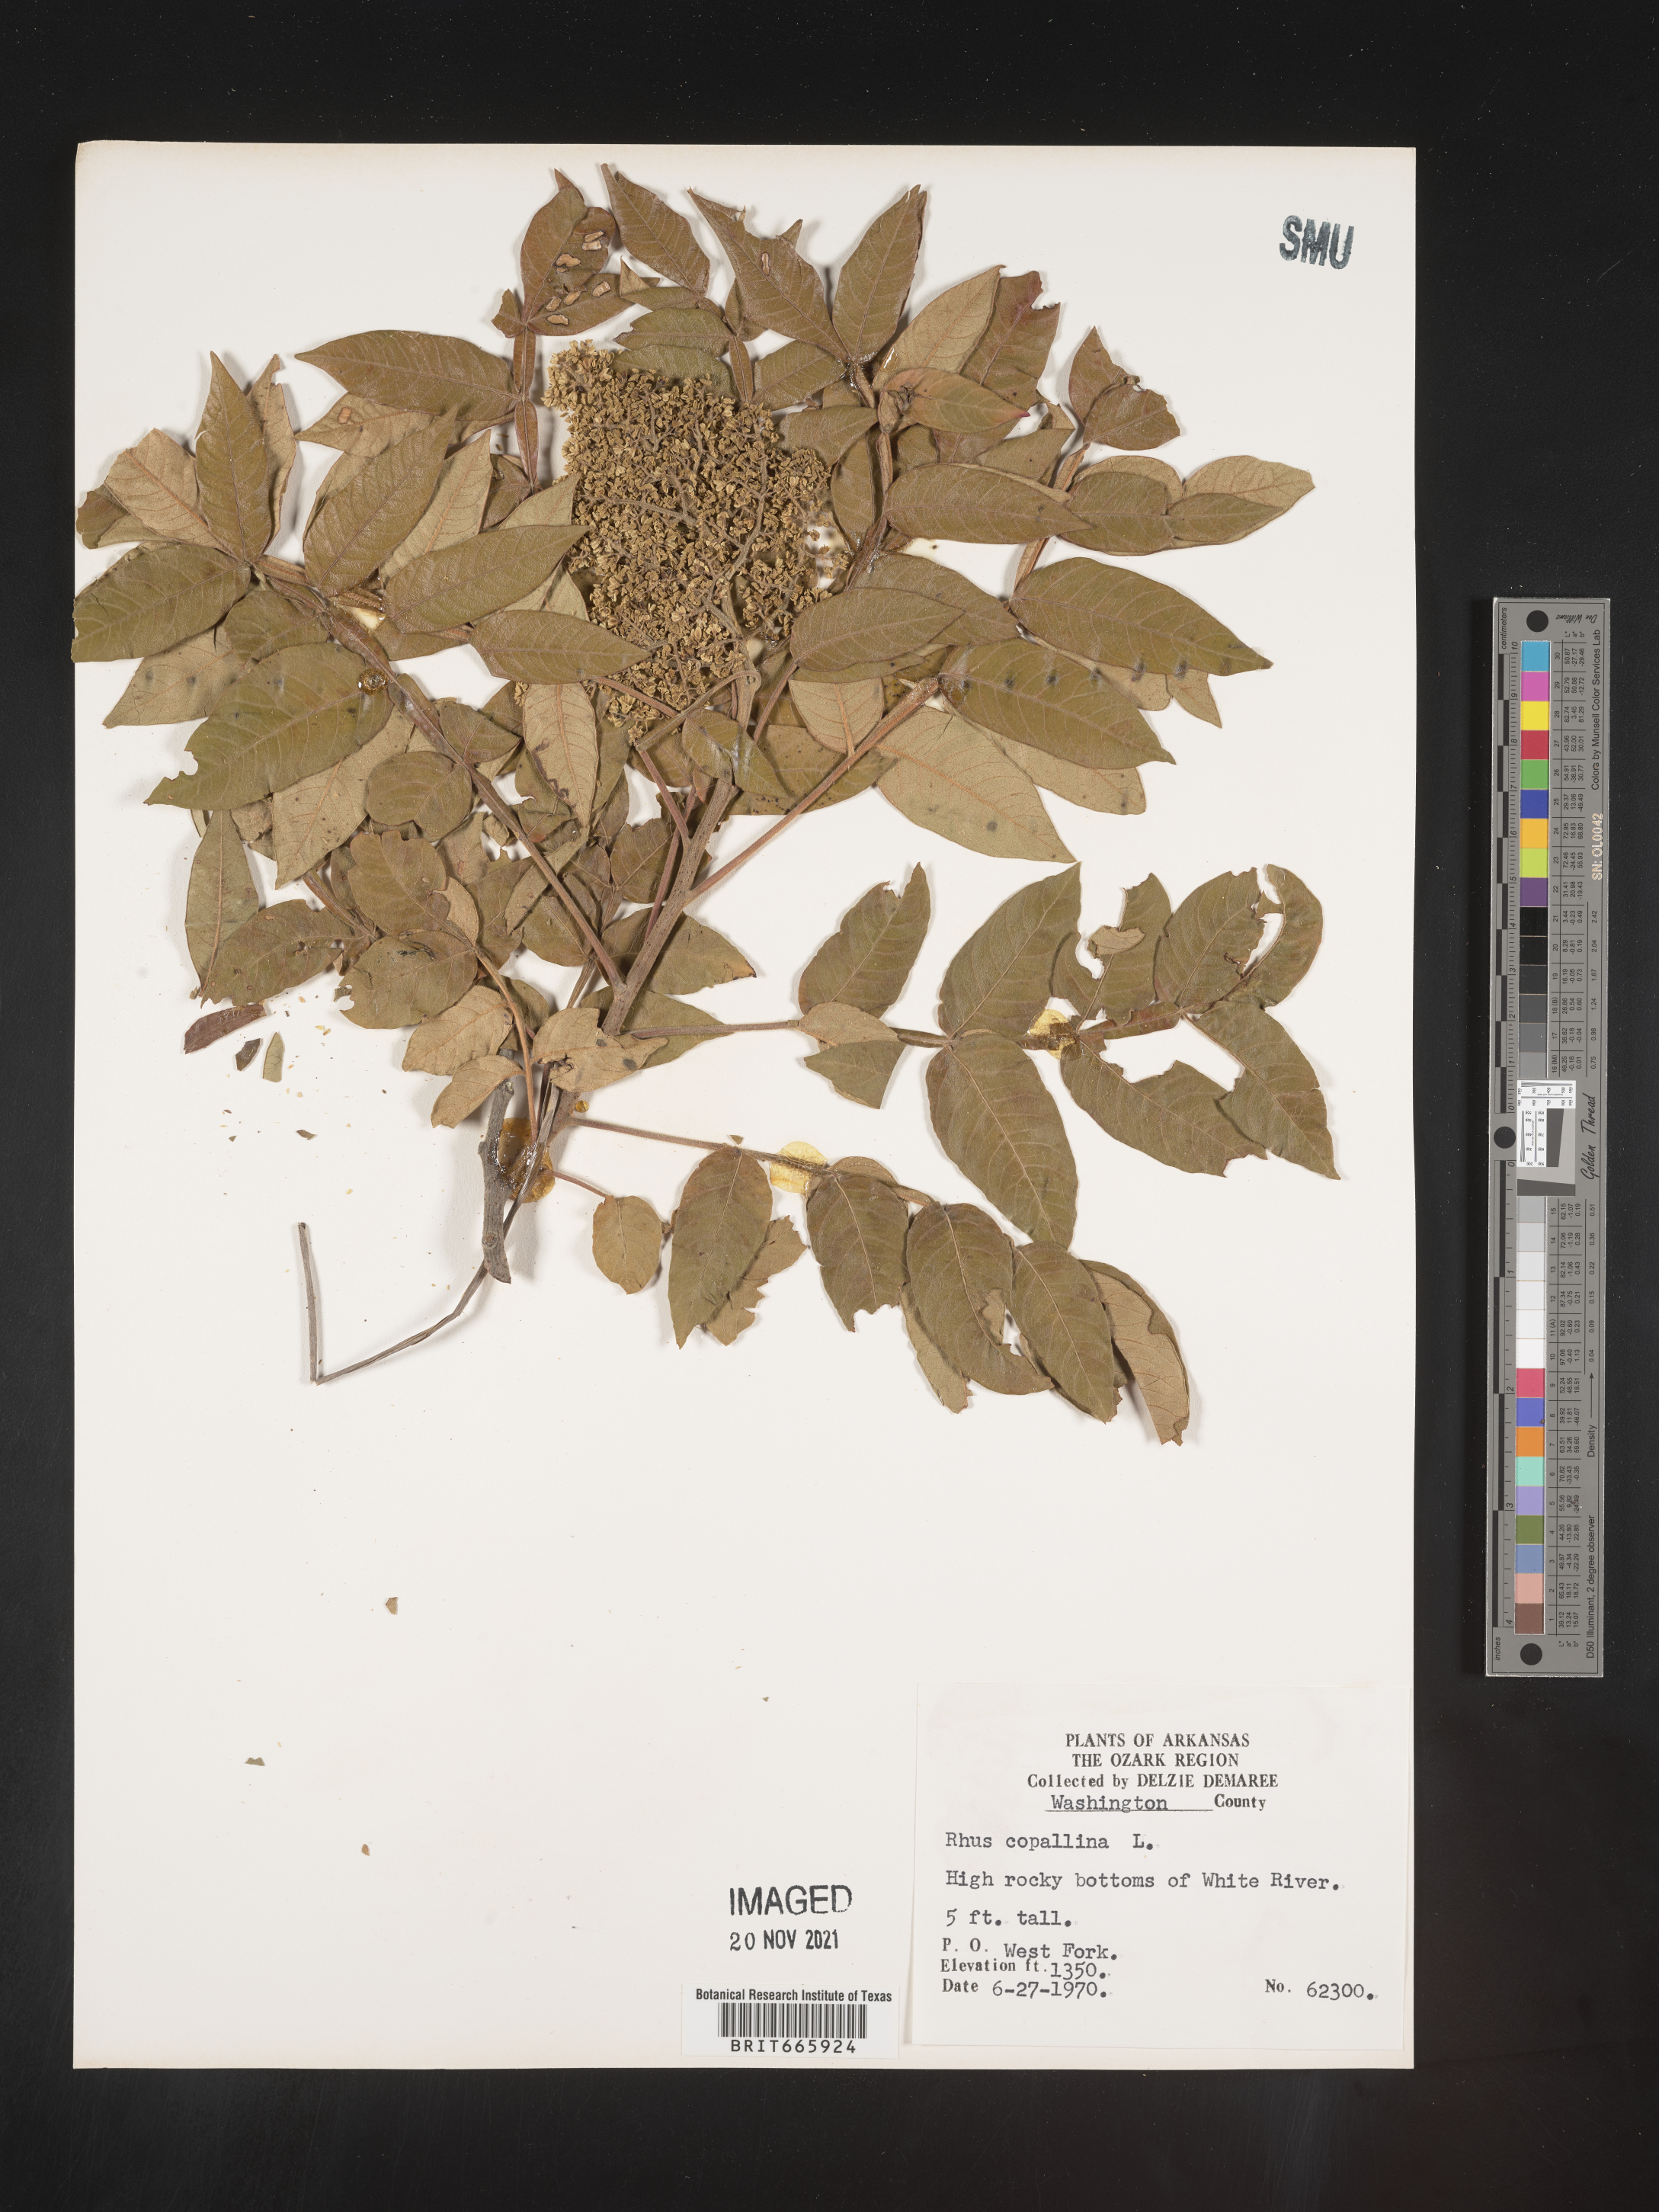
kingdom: Plantae
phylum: Tracheophyta
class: Magnoliopsida
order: Sapindales
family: Anacardiaceae
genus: Rhus
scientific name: Rhus copallina
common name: Shining sumac
